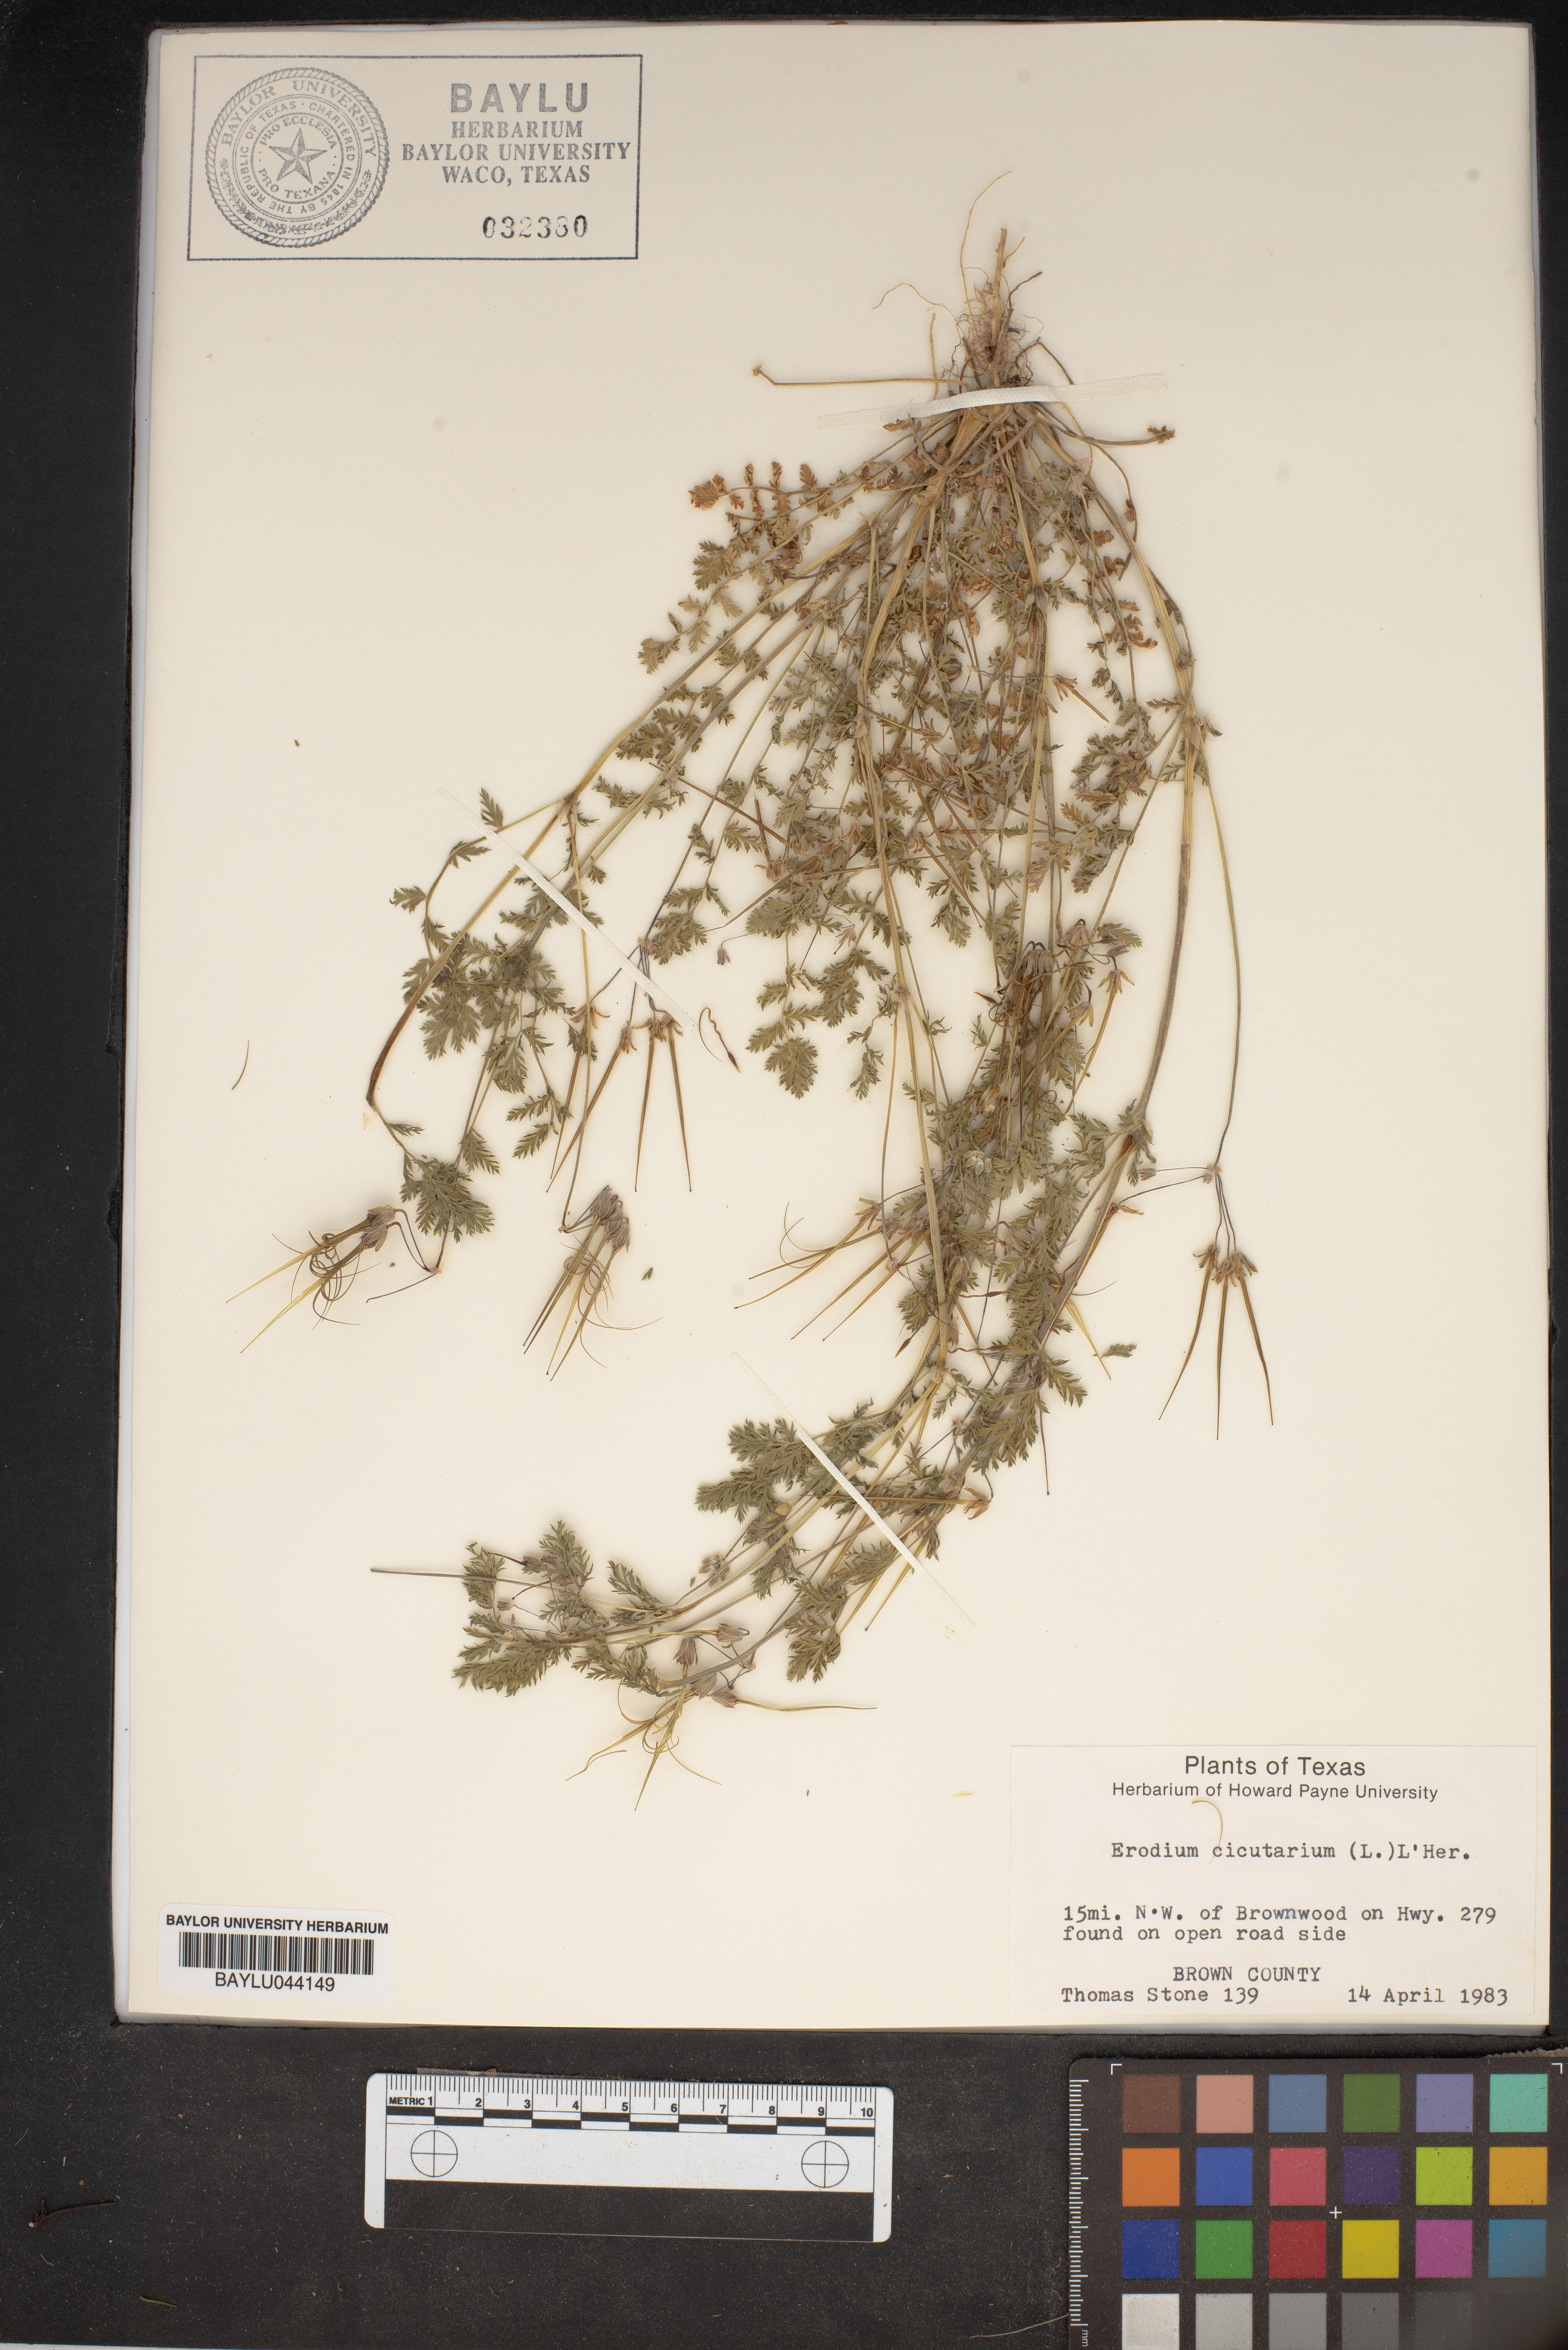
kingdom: Plantae
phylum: Tracheophyta
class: Magnoliopsida
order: Geraniales
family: Geraniaceae
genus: Erodium
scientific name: Erodium cicutarium
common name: Common stork's-bill
